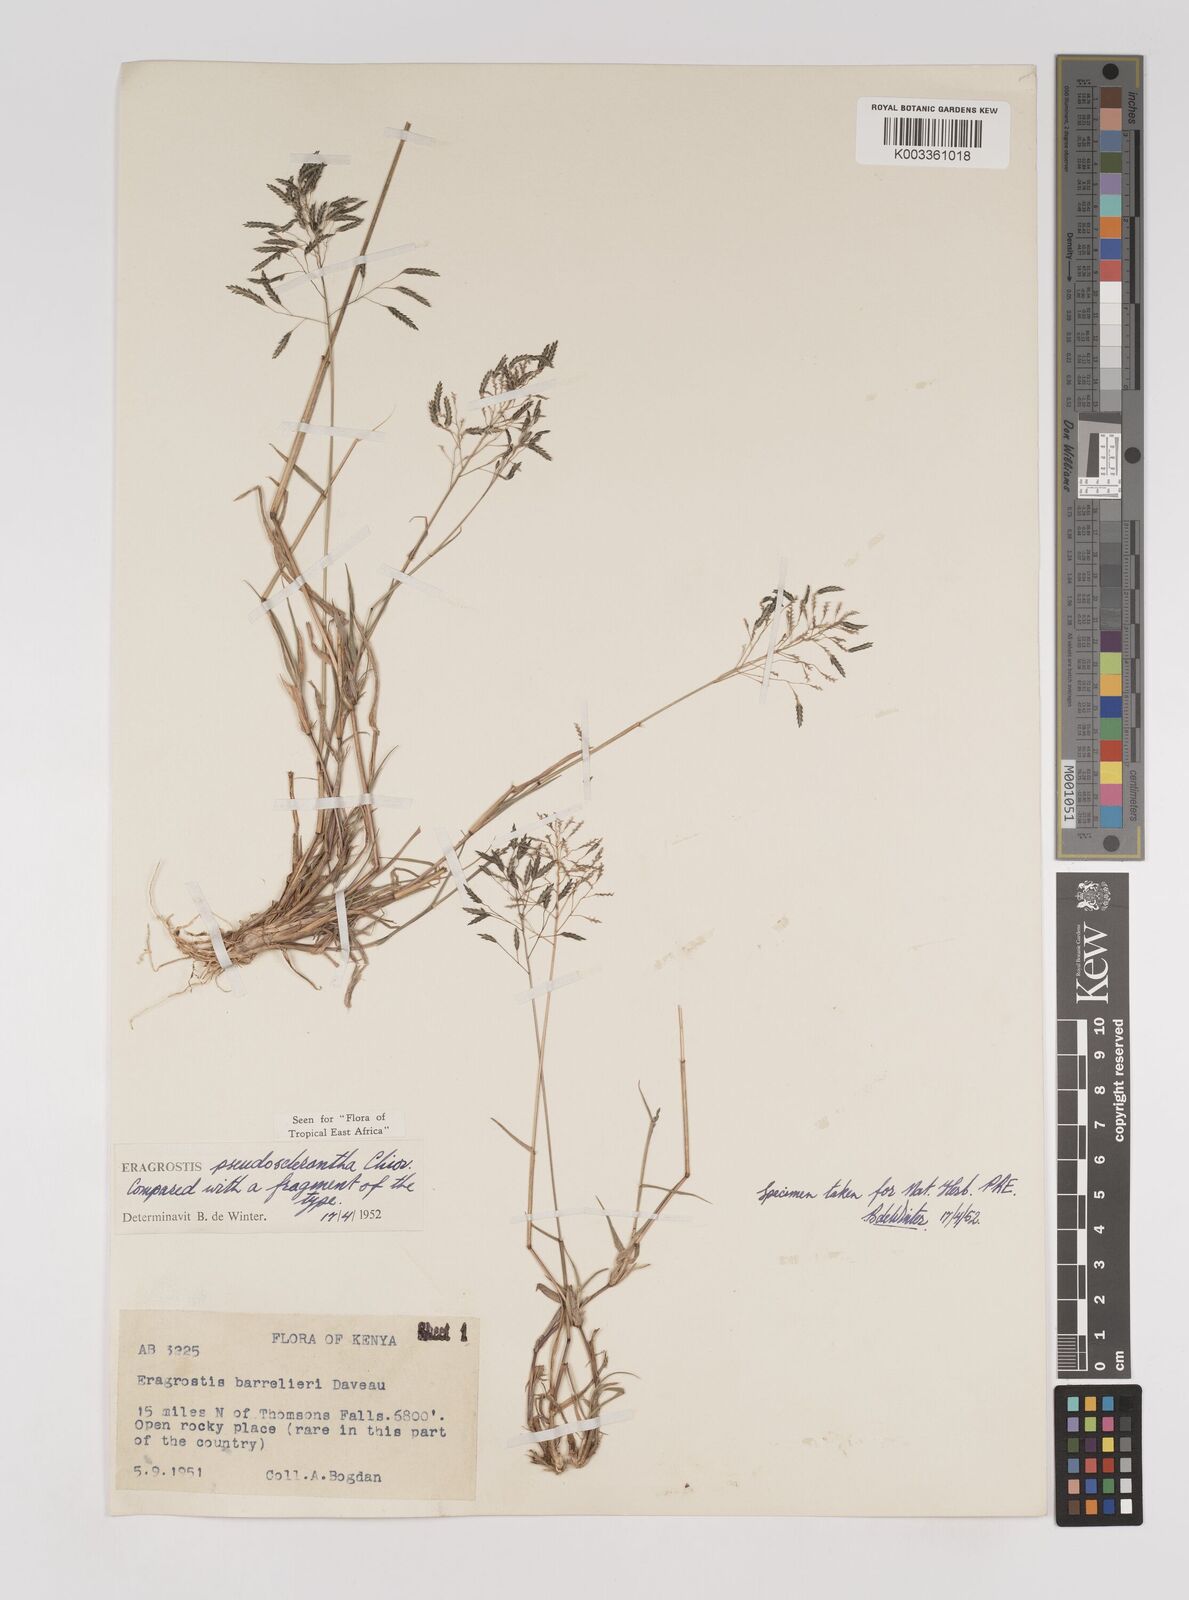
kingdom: Plantae
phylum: Tracheophyta
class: Liliopsida
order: Poales
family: Poaceae
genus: Eragrostis
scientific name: Eragrostis patentipilosa
